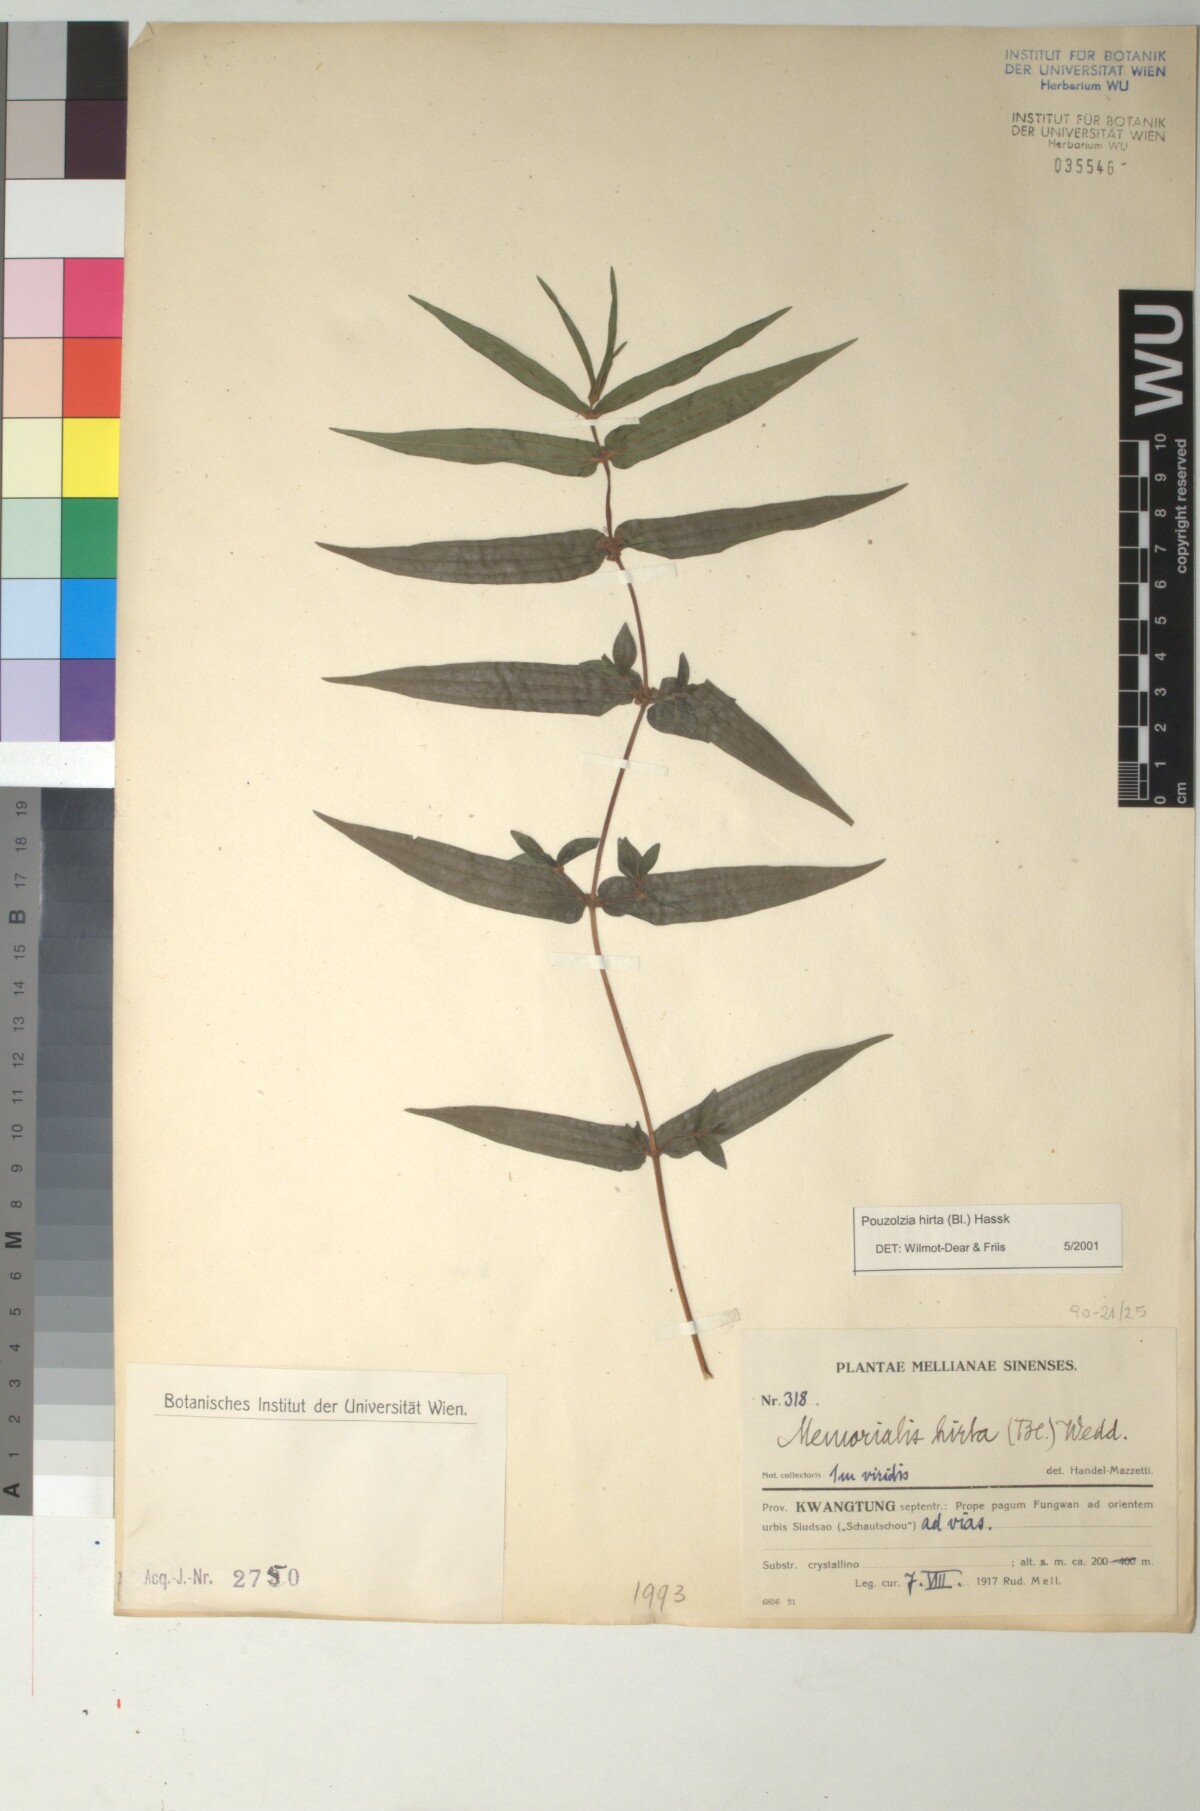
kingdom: Plantae
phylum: Tracheophyta
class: Magnoliopsida
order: Rosales
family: Urticaceae
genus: Gonostegia
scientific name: Gonostegia triandra
